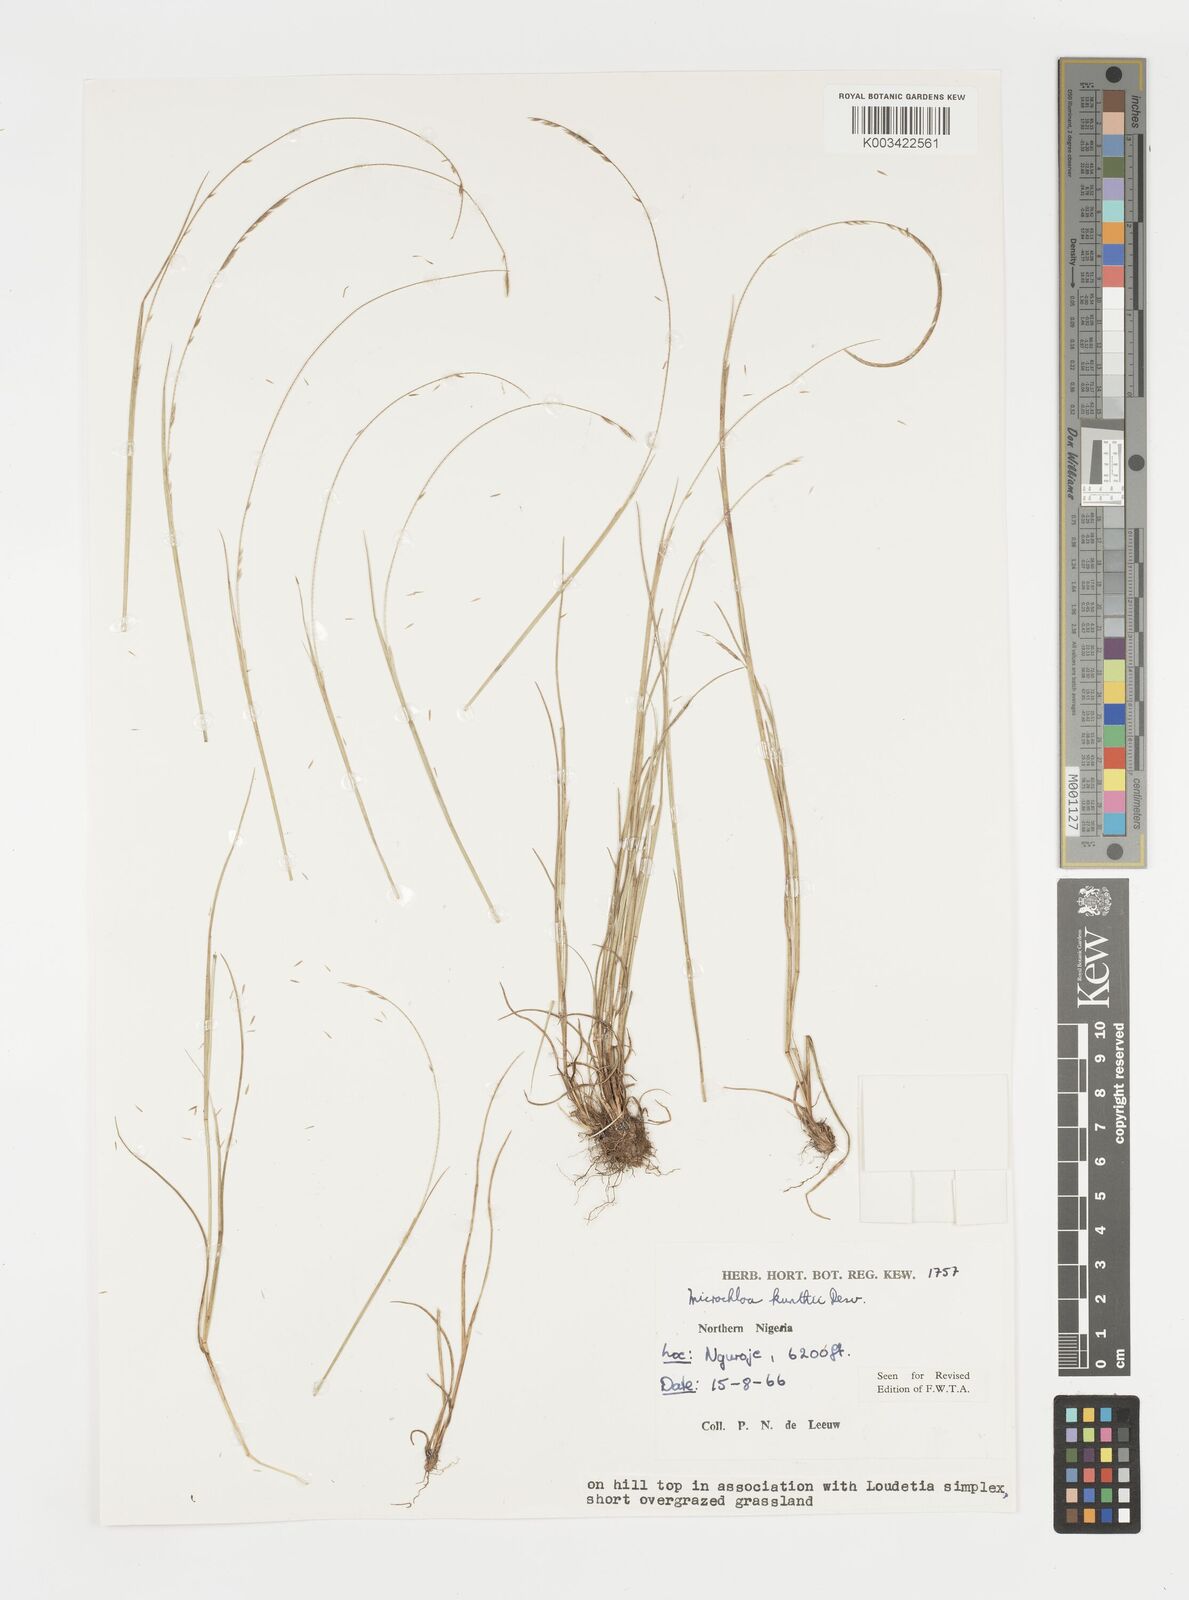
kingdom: Plantae
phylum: Tracheophyta
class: Liliopsida
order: Poales
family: Poaceae
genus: Microchloa
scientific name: Microchloa kunthii
